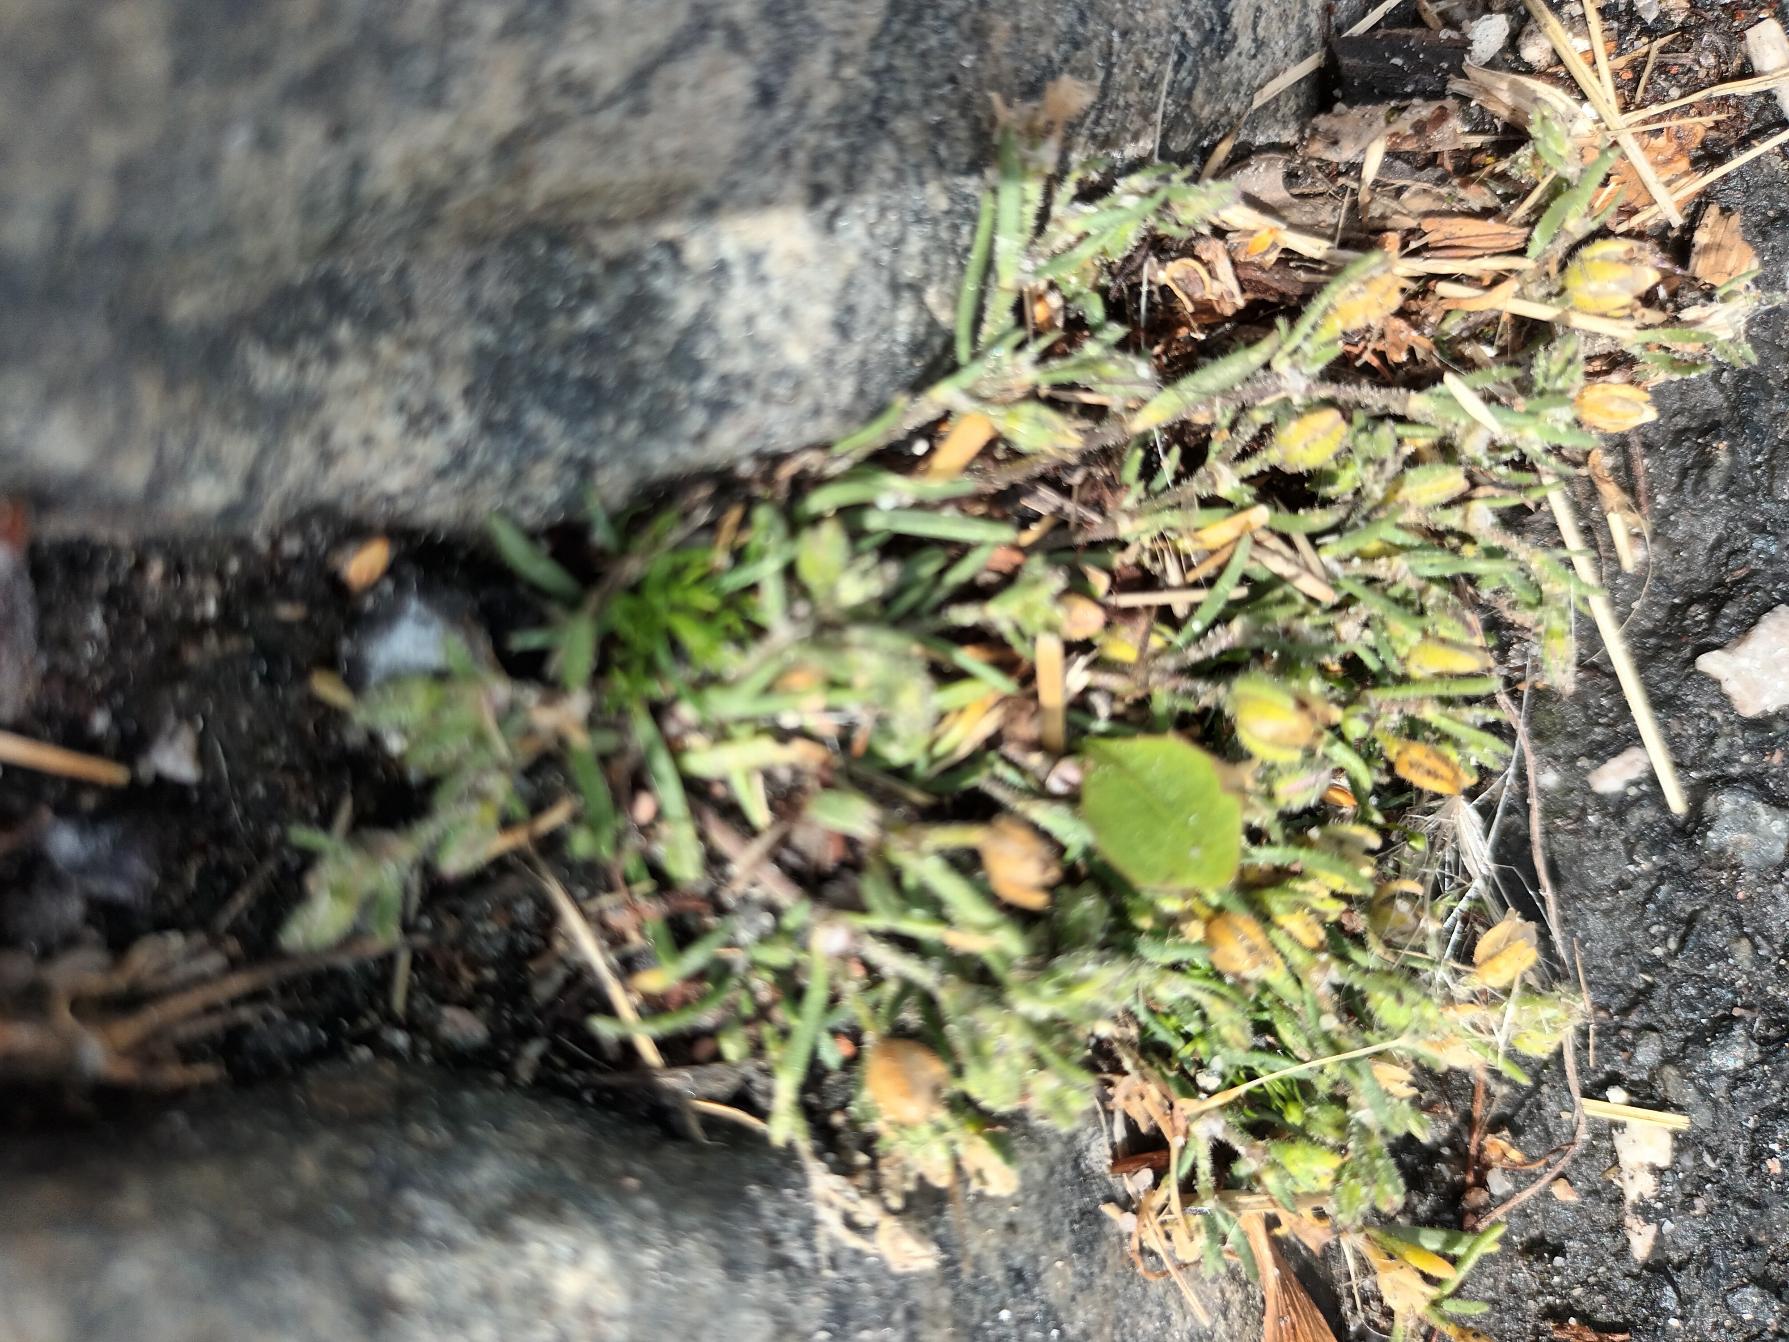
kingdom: Plantae
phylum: Tracheophyta
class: Magnoliopsida
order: Caryophyllales
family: Caryophyllaceae
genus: Spergularia
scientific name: Spergularia marina
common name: Kødet hindeknæ
